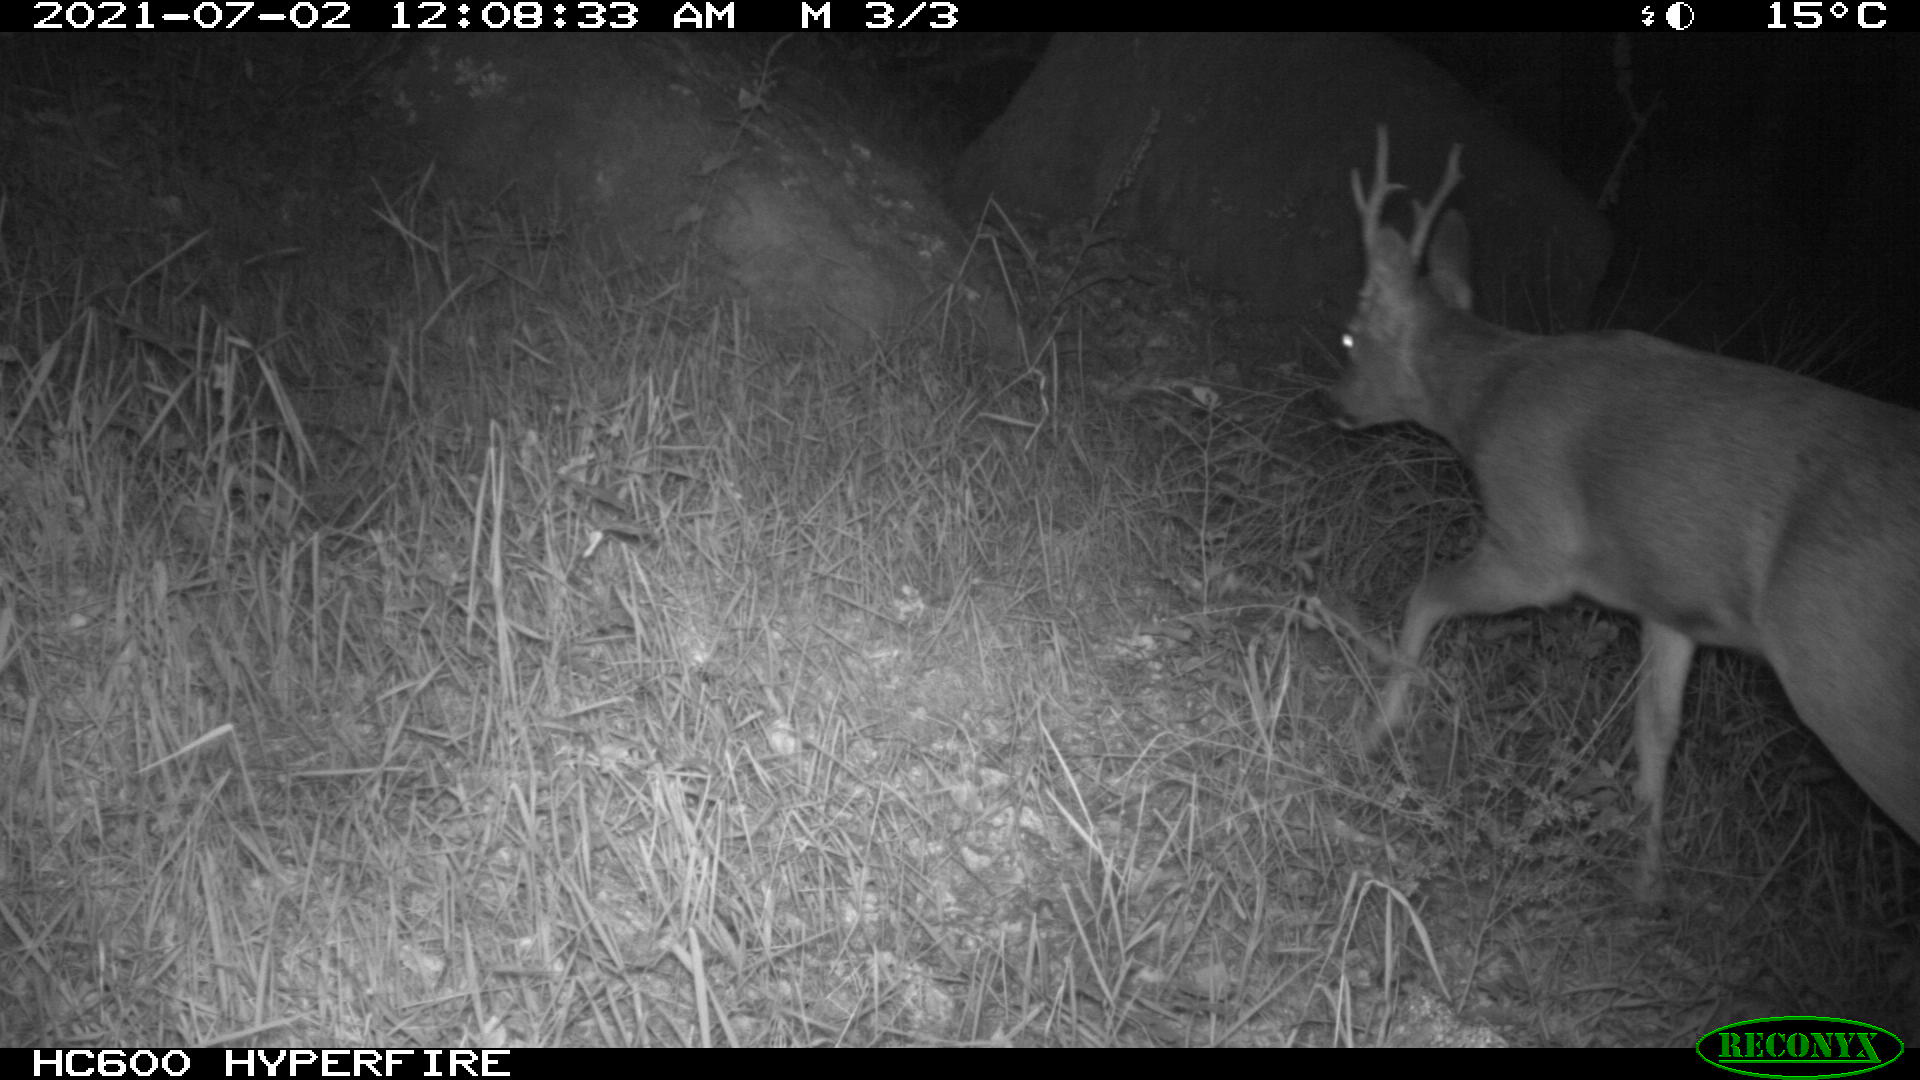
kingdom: Animalia
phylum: Chordata
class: Mammalia
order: Artiodactyla
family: Cervidae
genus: Capreolus
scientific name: Capreolus capreolus
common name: Western roe deer
